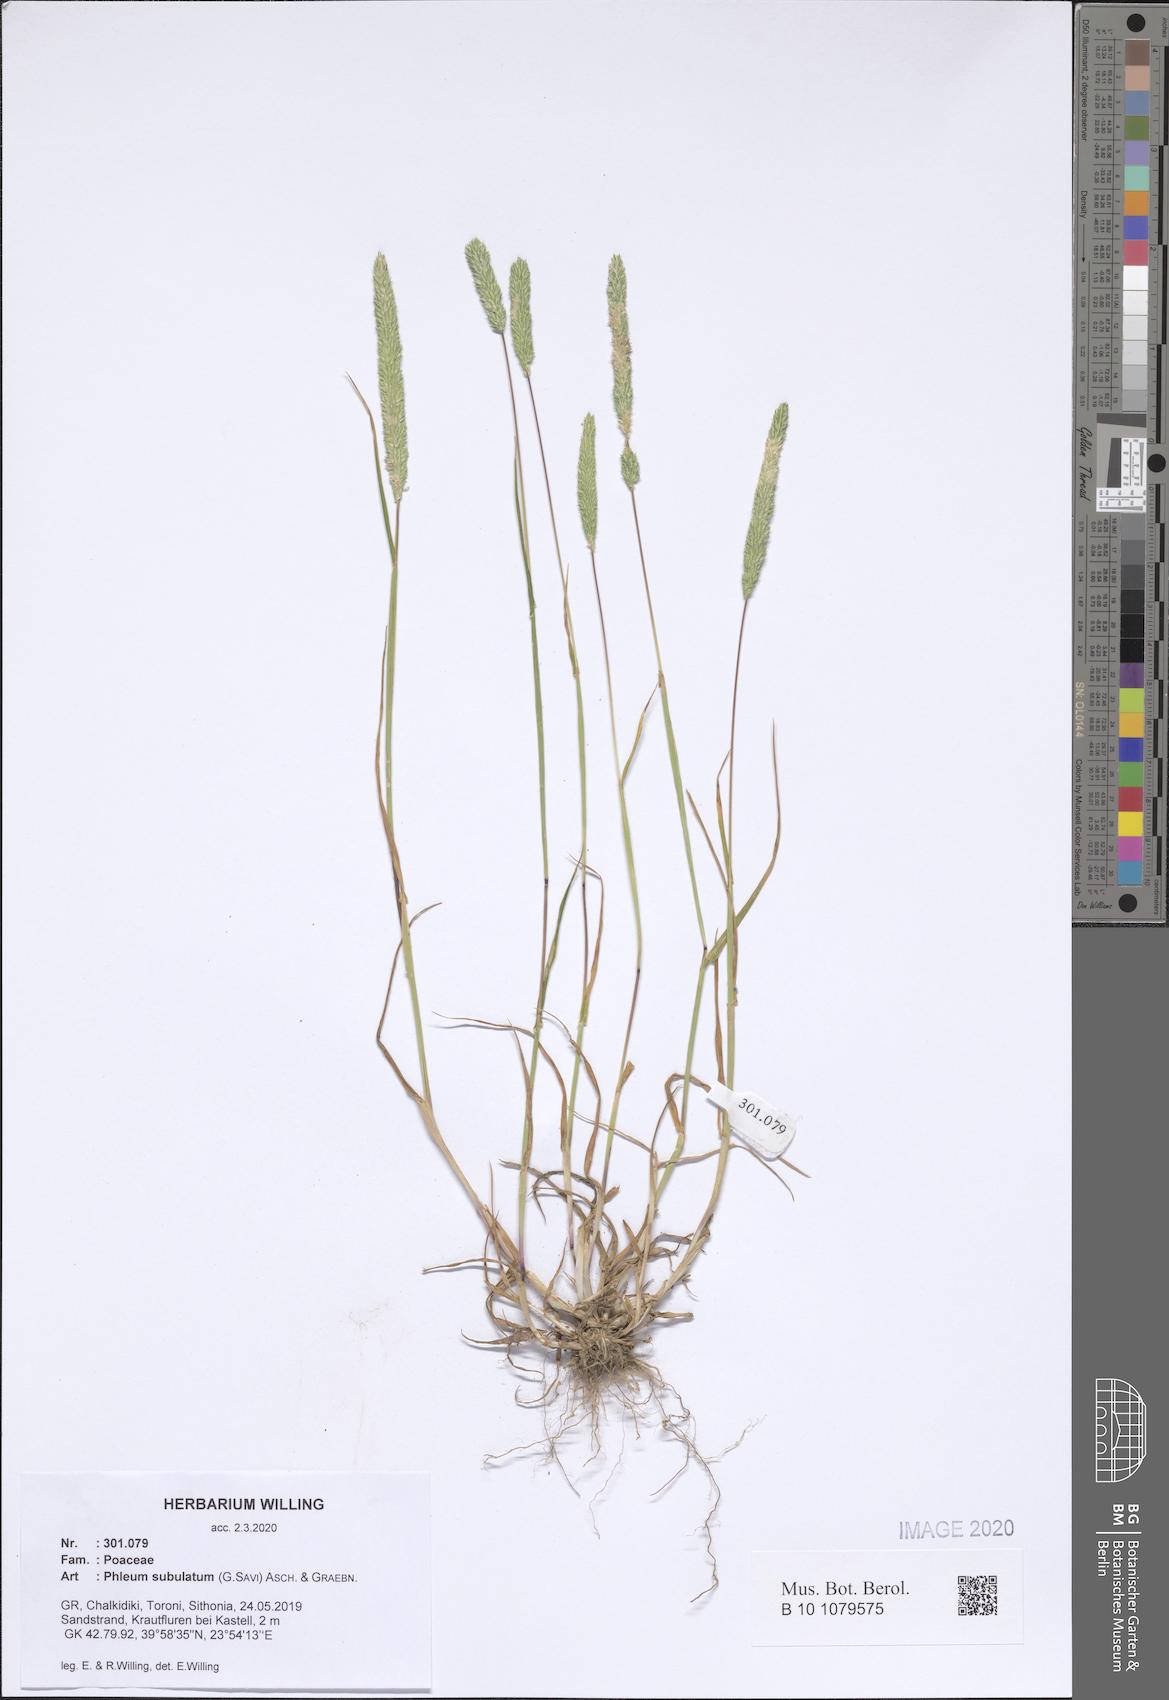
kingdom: Plantae
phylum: Tracheophyta
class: Liliopsida
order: Poales
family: Poaceae
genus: Phleum
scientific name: Phleum subulatum
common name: Italian timothy
